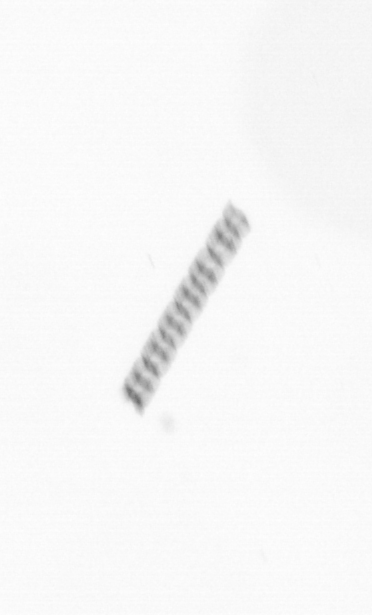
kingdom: Chromista
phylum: Ochrophyta
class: Bacillariophyceae
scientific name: Bacillariophyceae
